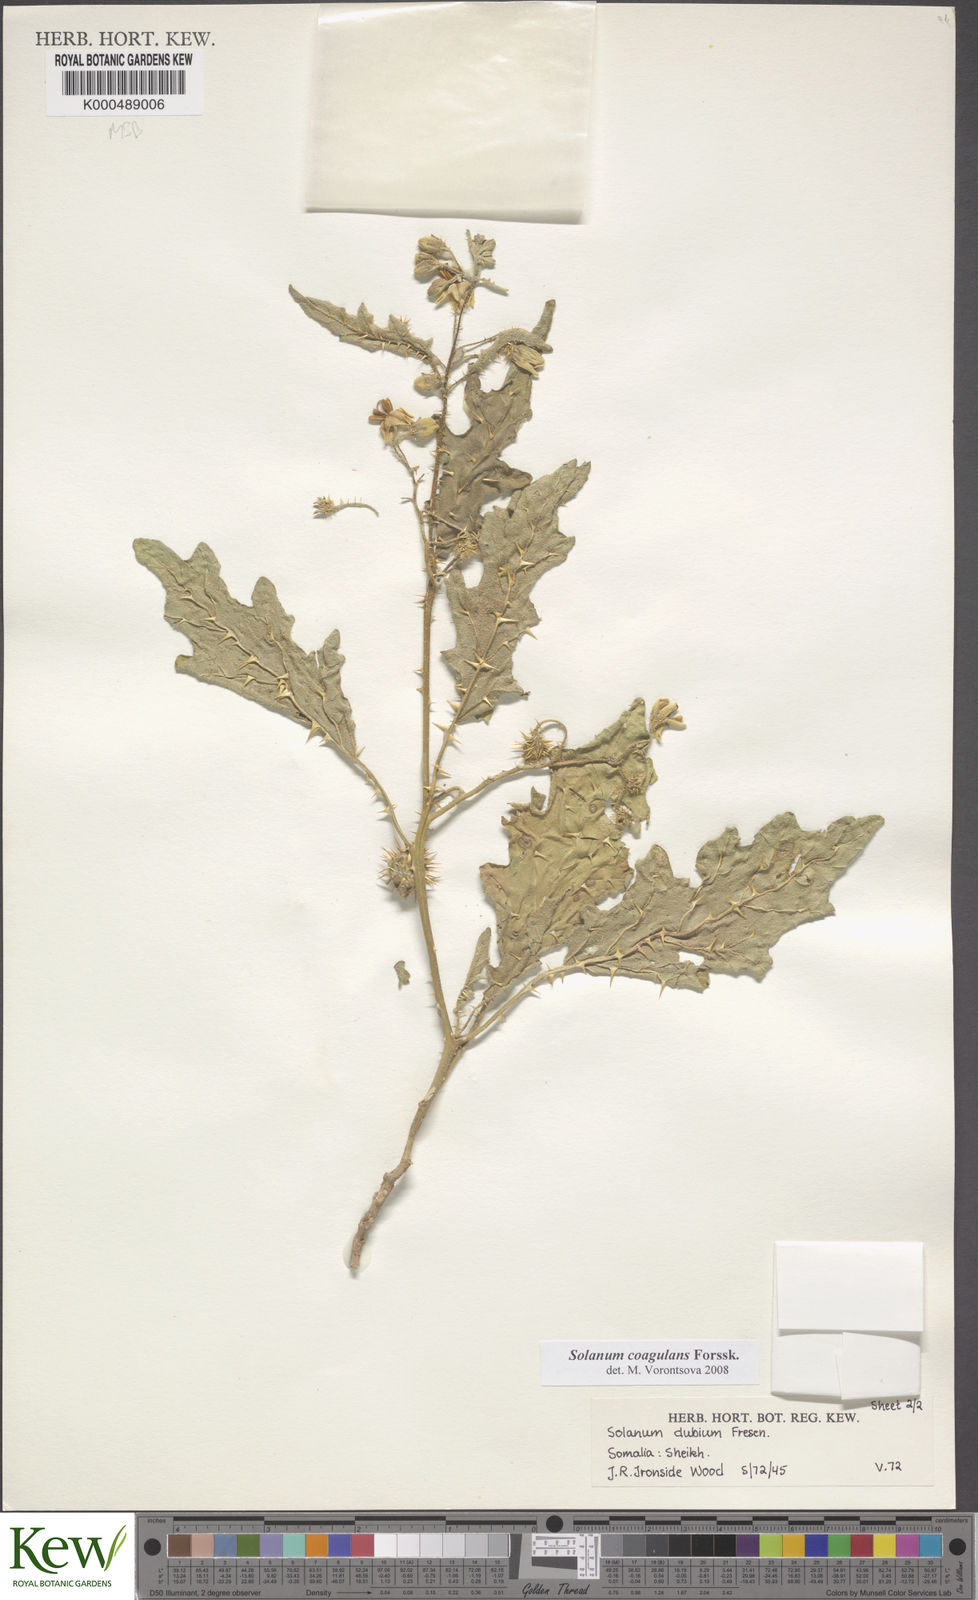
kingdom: Plantae
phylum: Tracheophyta
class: Magnoliopsida
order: Solanales
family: Solanaceae
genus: Solanum
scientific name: Solanum coagulans
